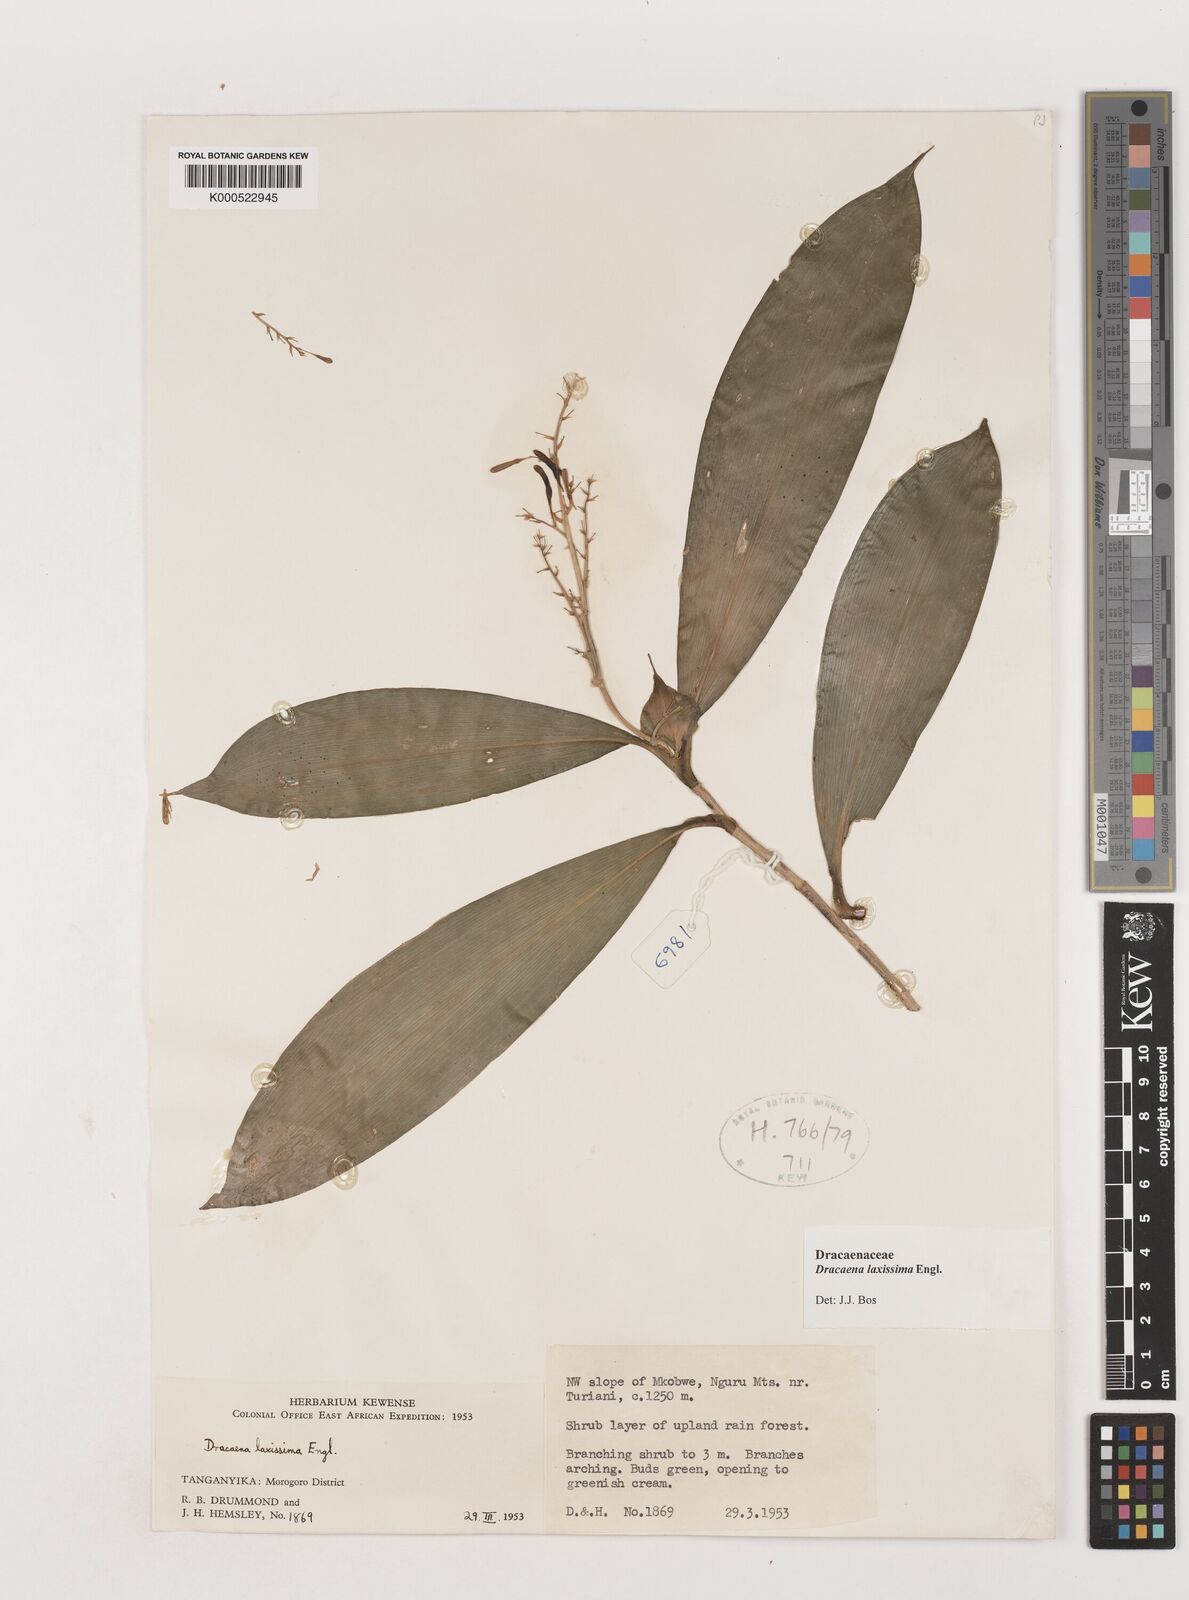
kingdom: Plantae
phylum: Tracheophyta
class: Liliopsida
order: Asparagales
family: Asparagaceae
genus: Dracaena
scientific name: Dracaena laxissima
